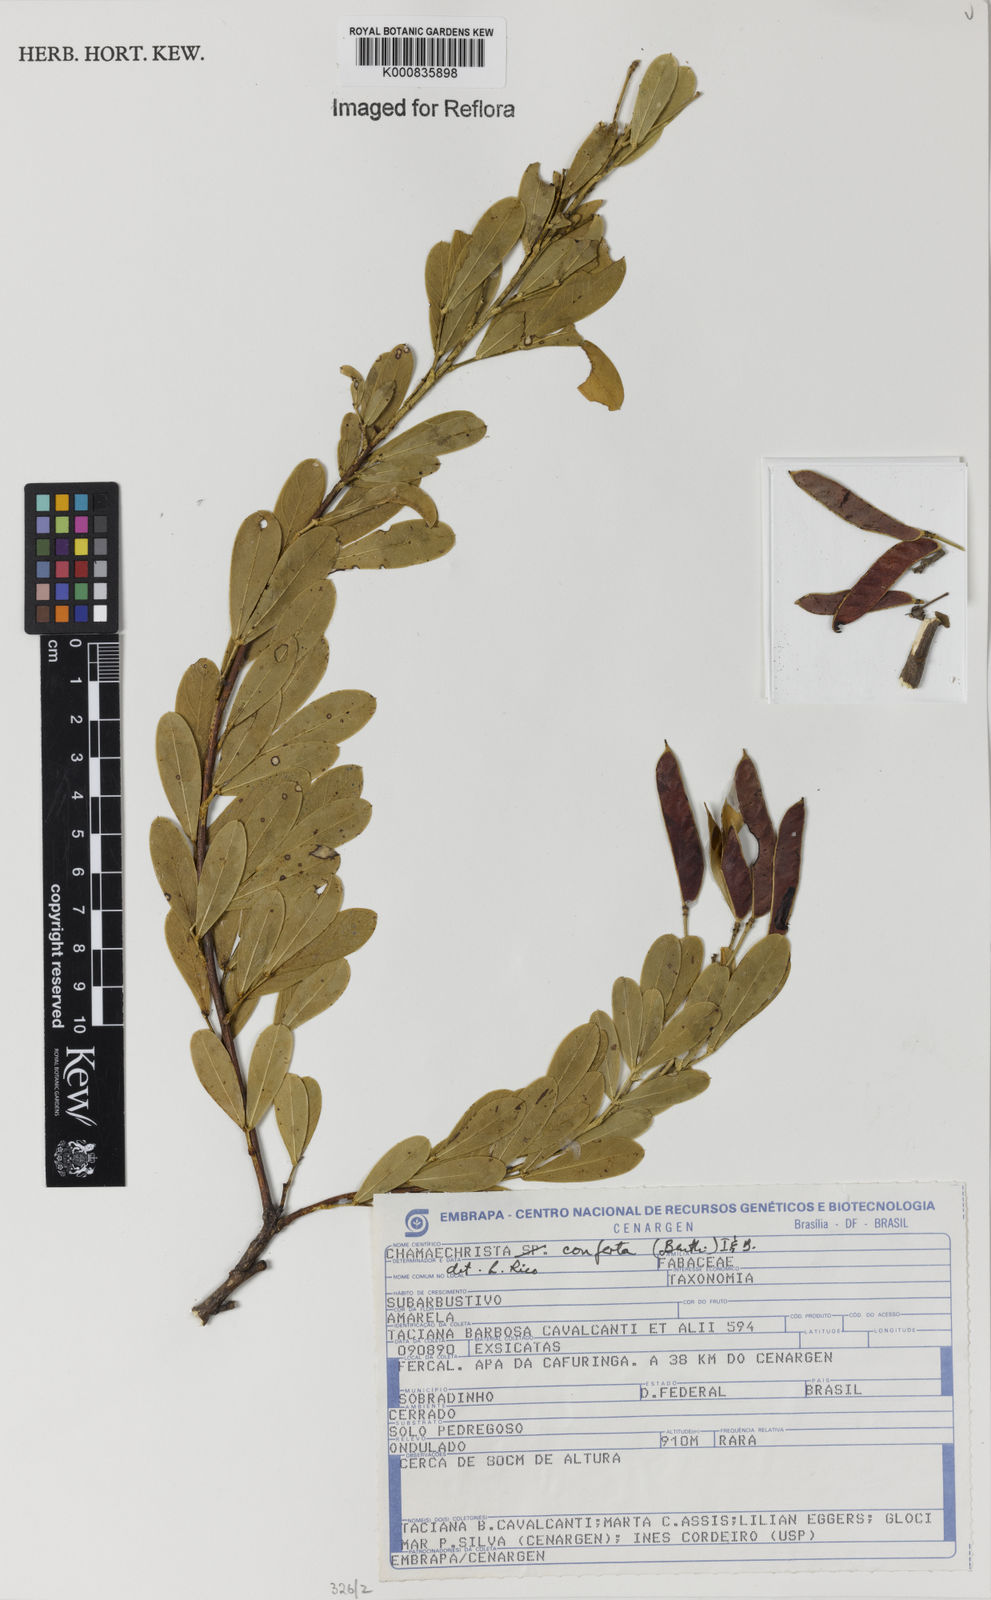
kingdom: Plantae
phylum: Tracheophyta
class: Magnoliopsida
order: Fabales
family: Fabaceae
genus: Chamaecrista
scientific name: Chamaecrista conferta
